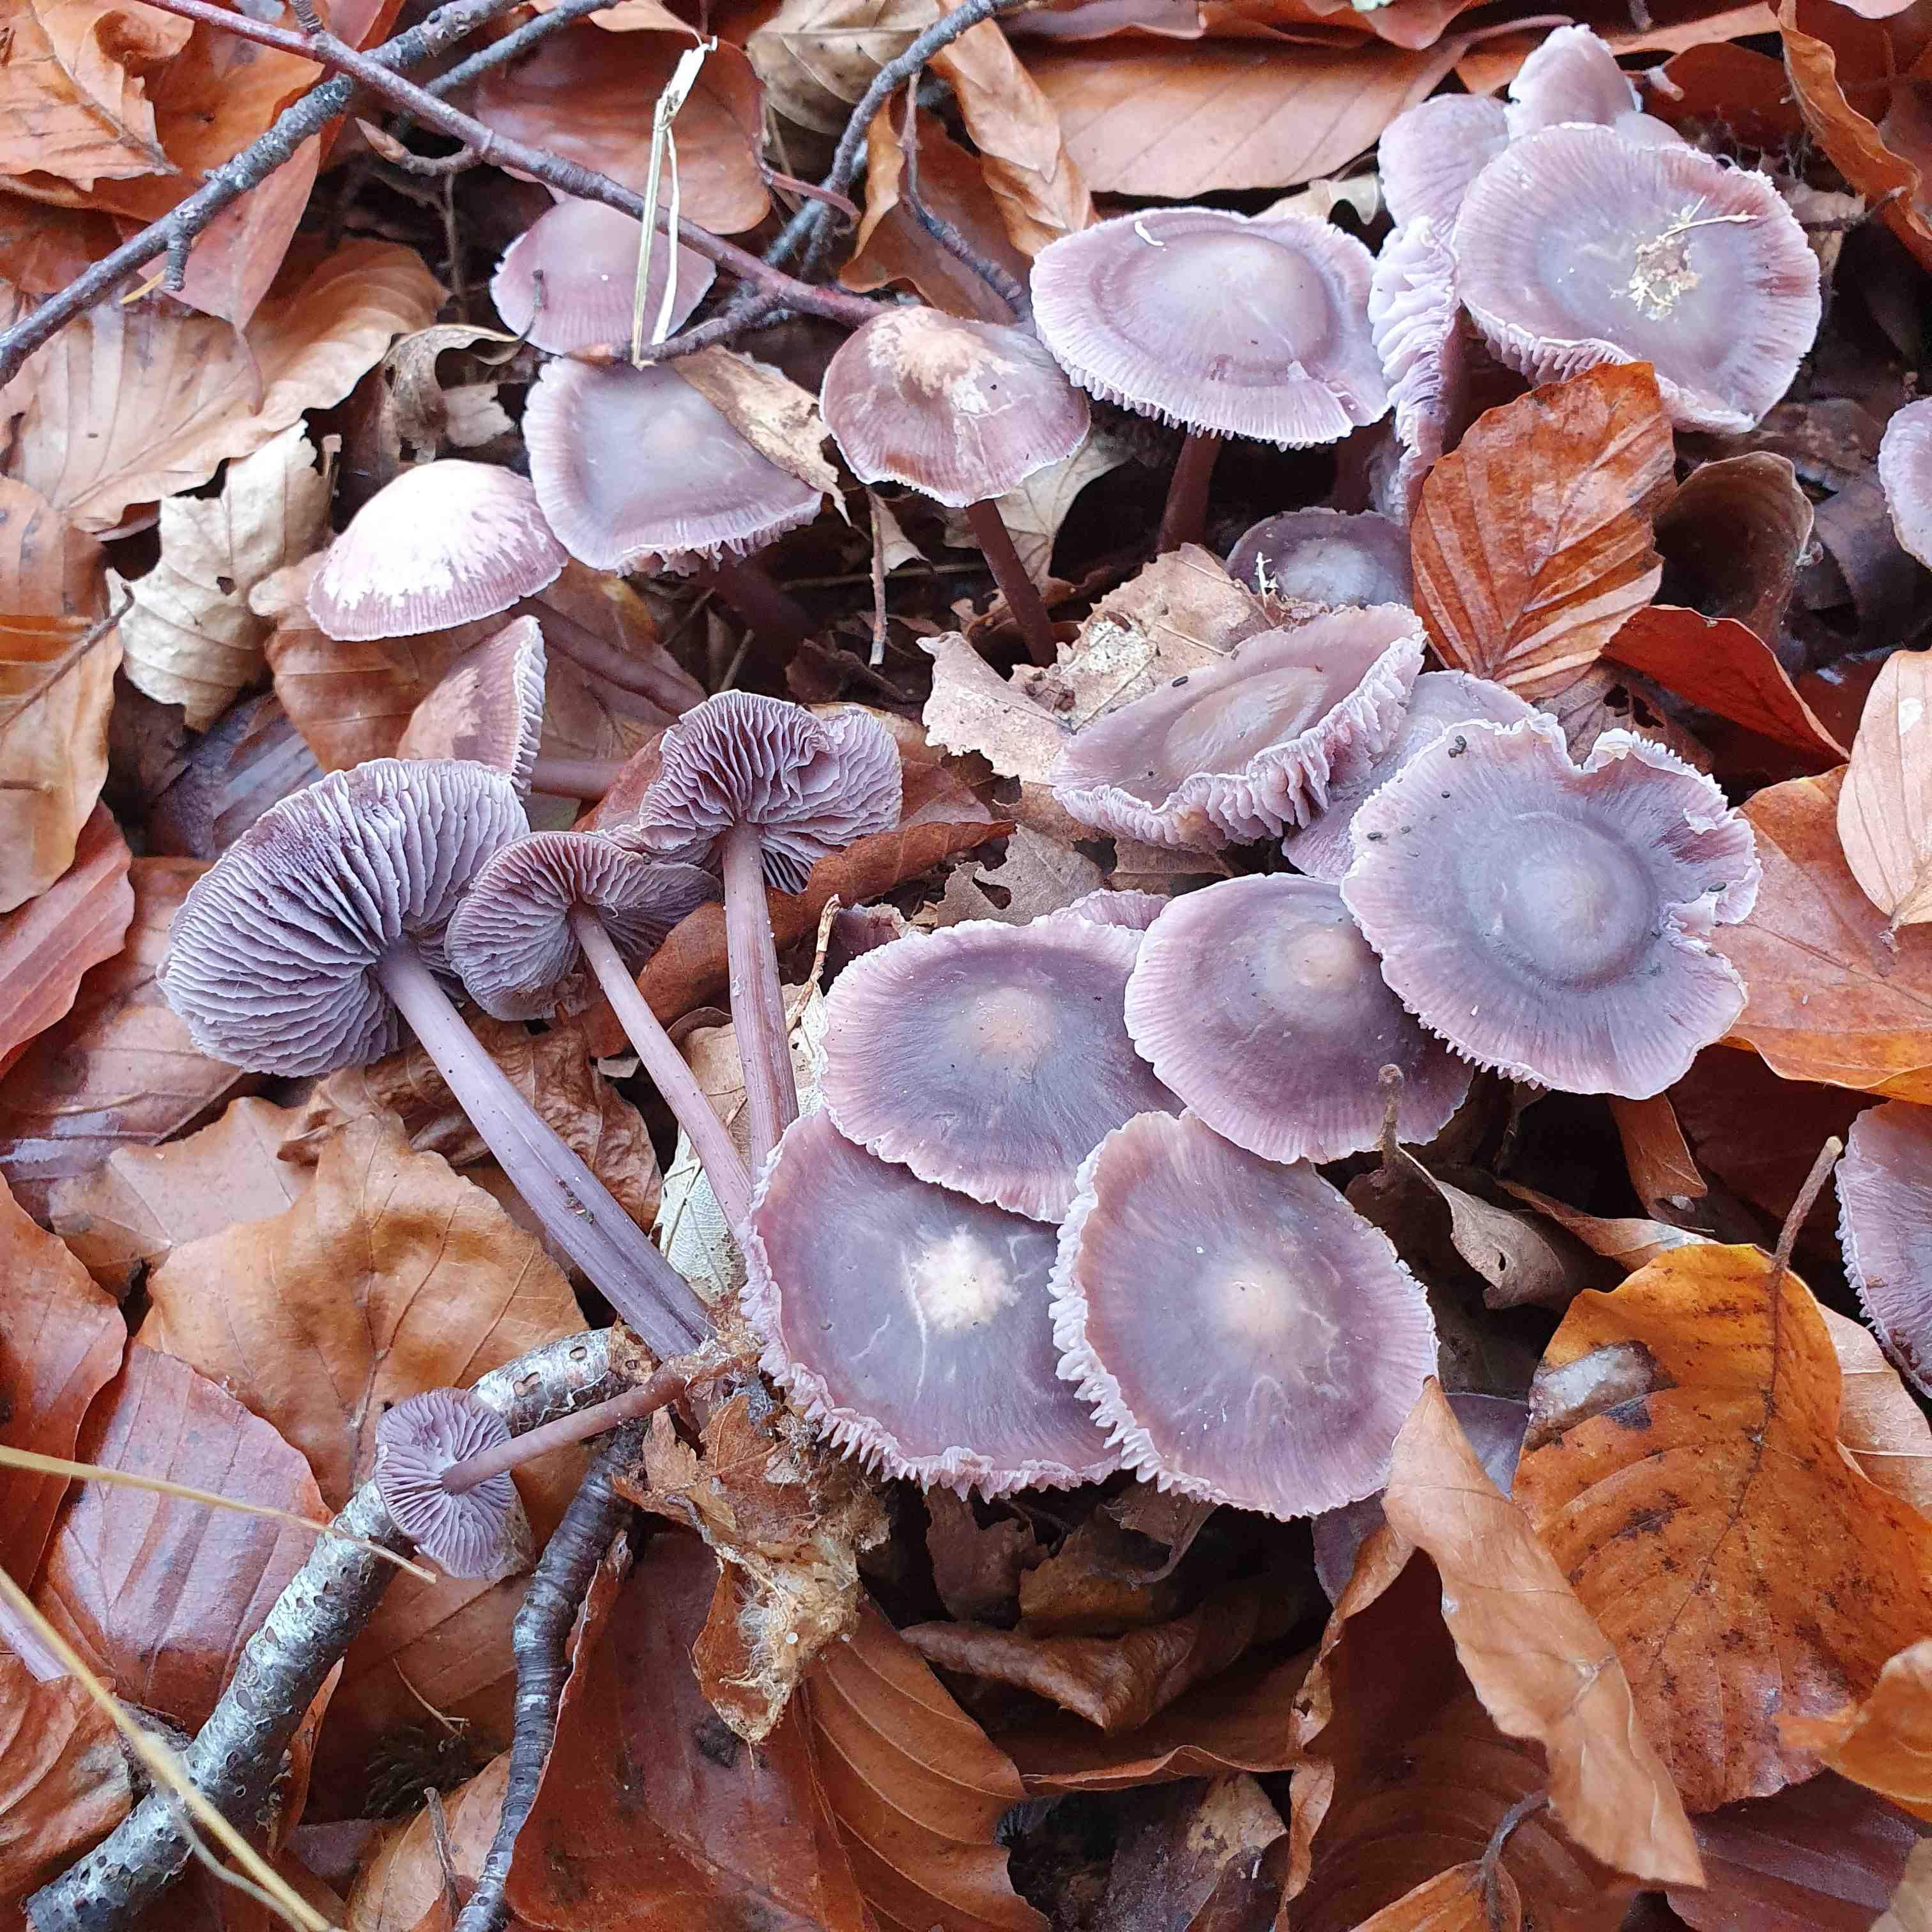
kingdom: Fungi
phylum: Basidiomycota
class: Agaricomycetes
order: Agaricales
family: Mycenaceae
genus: Prunulus
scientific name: Prunulus diosmus
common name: tobaks-huesvamp
